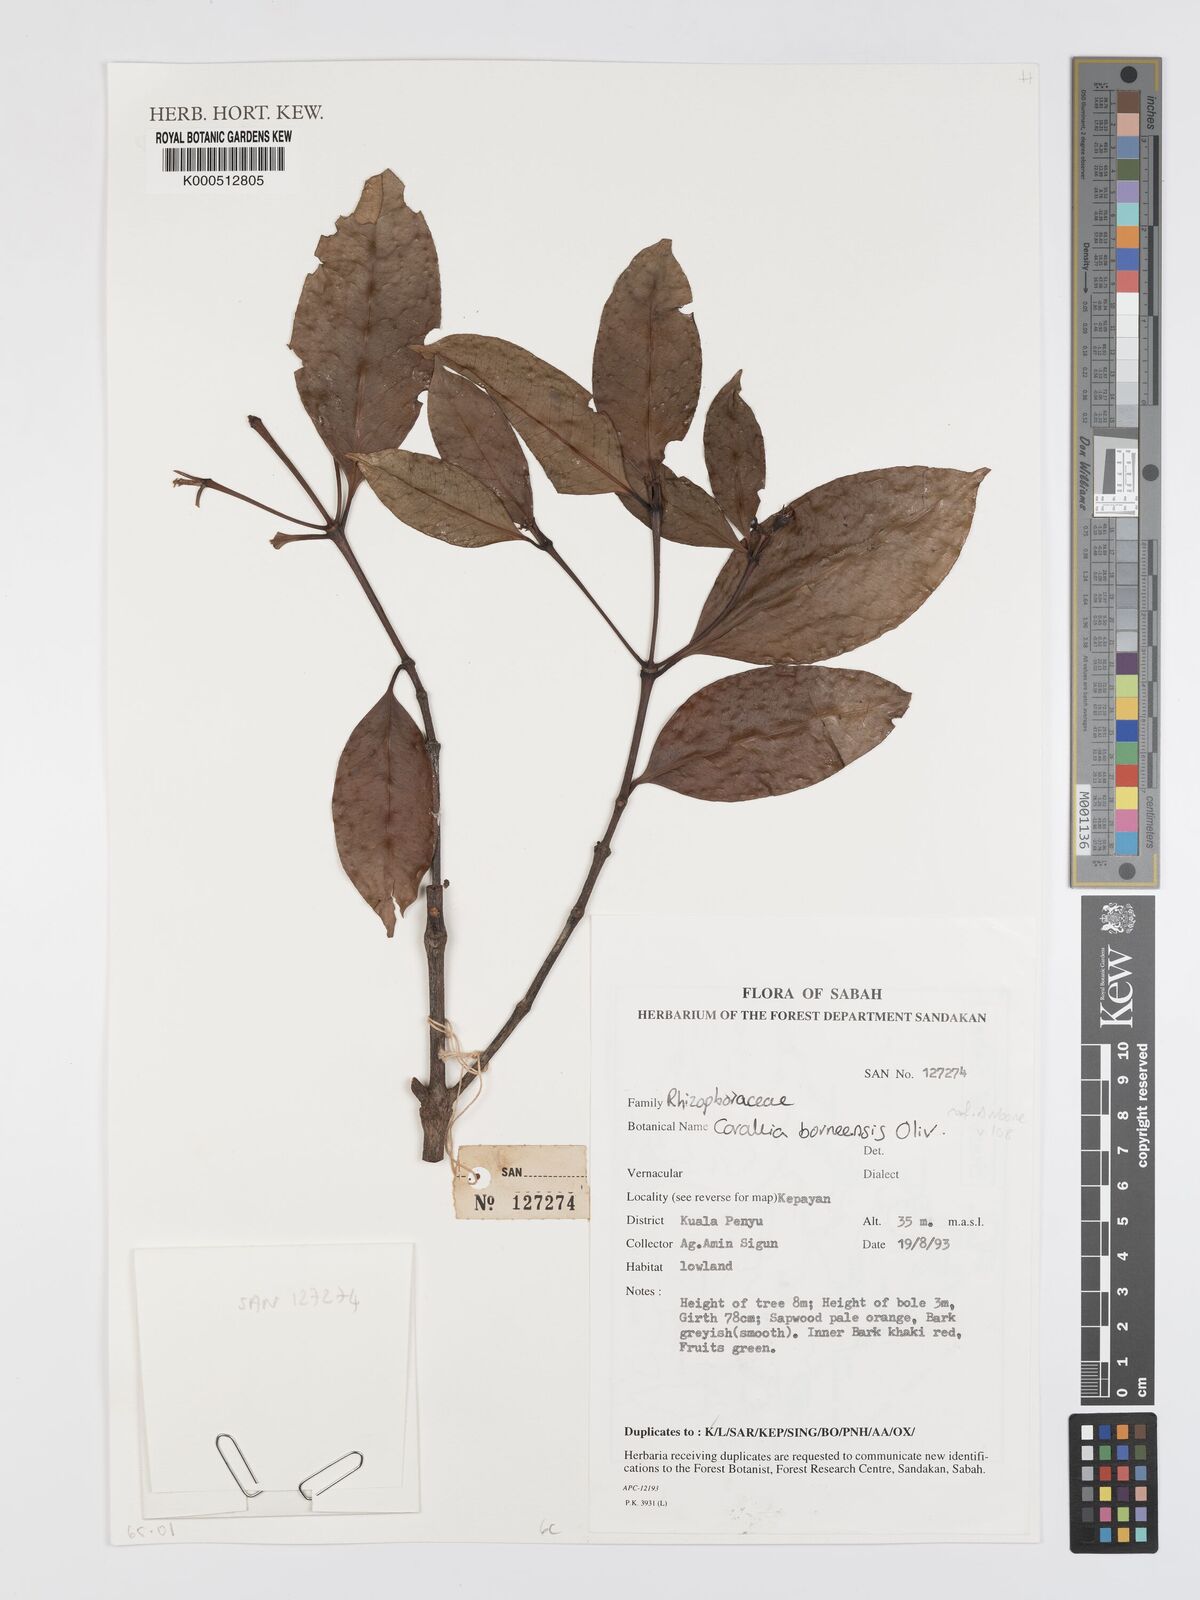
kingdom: Plantae
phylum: Tracheophyta
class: Magnoliopsida
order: Malpighiales
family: Rhizophoraceae
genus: Carallia
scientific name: Carallia borneensis
